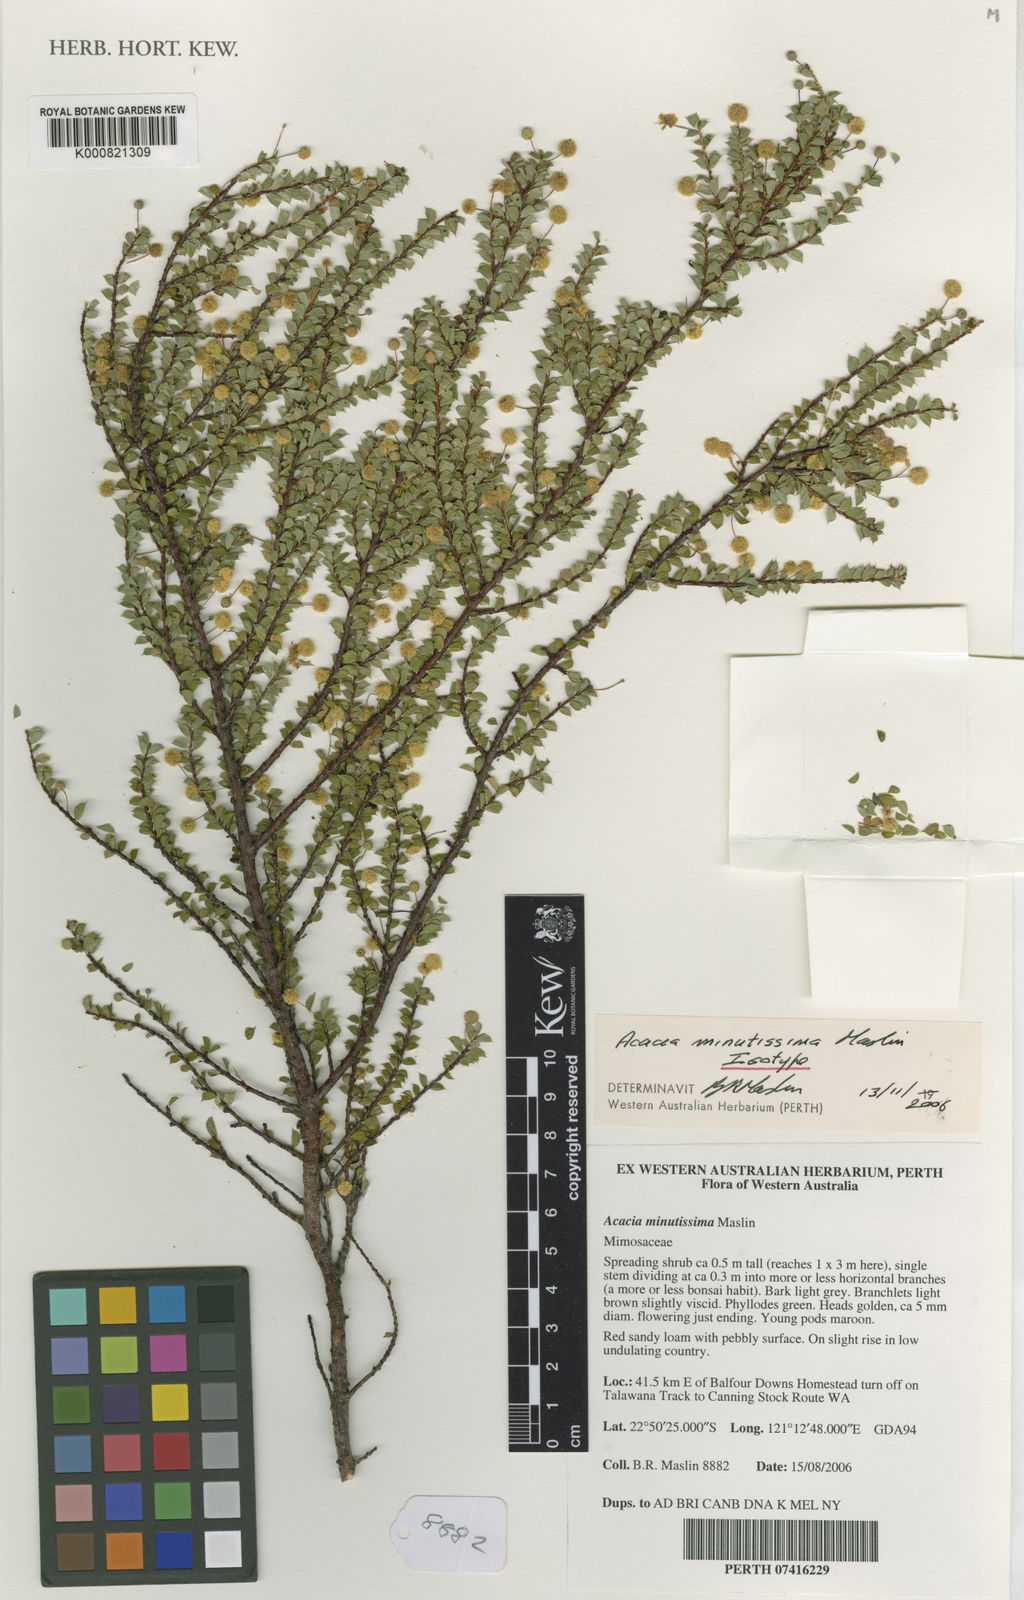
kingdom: Plantae
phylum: Tracheophyta
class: Magnoliopsida
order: Fabales
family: Fabaceae
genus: Acacia
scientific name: Acacia minutissima
